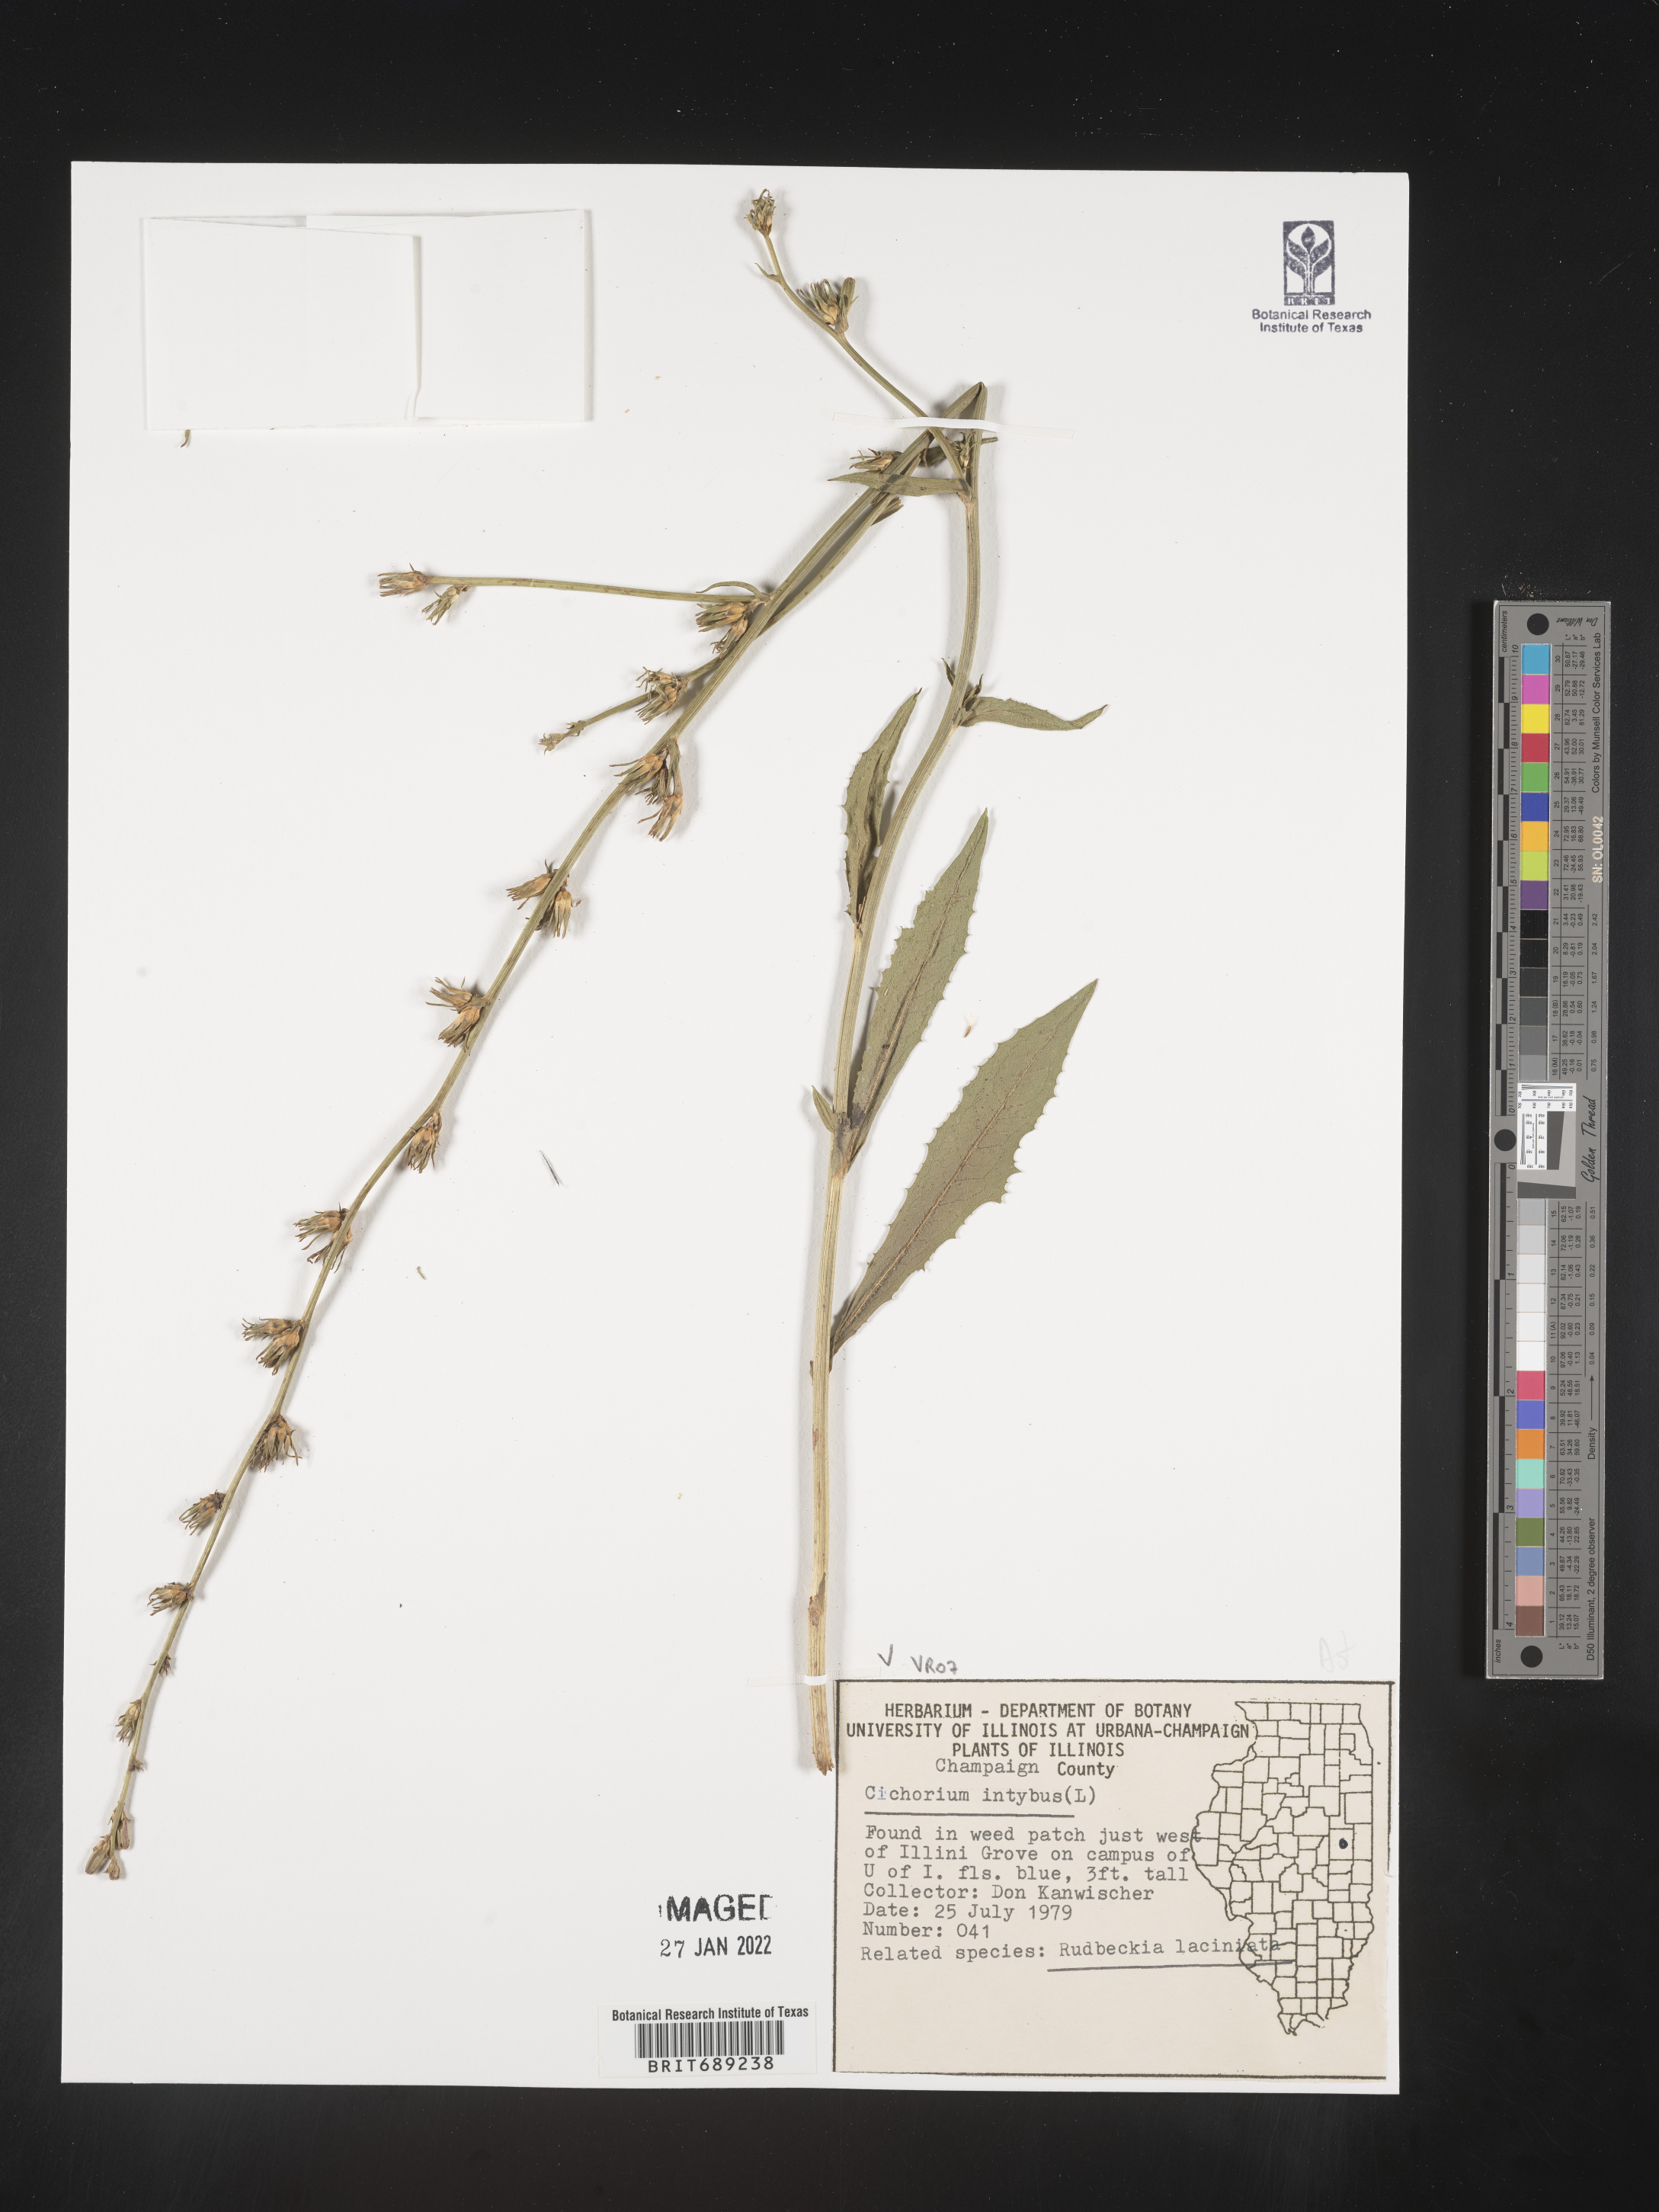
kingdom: Plantae
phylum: Tracheophyta
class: Magnoliopsida
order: Asterales
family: Asteraceae
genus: Cichorium
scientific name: Cichorium intybus
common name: Chicory
